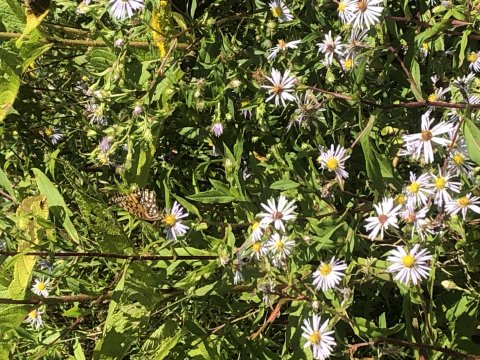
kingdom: Animalia
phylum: Arthropoda
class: Insecta
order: Lepidoptera
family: Nymphalidae
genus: Speyeria
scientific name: Speyeria atlantis
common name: Atlantis Fritillary
